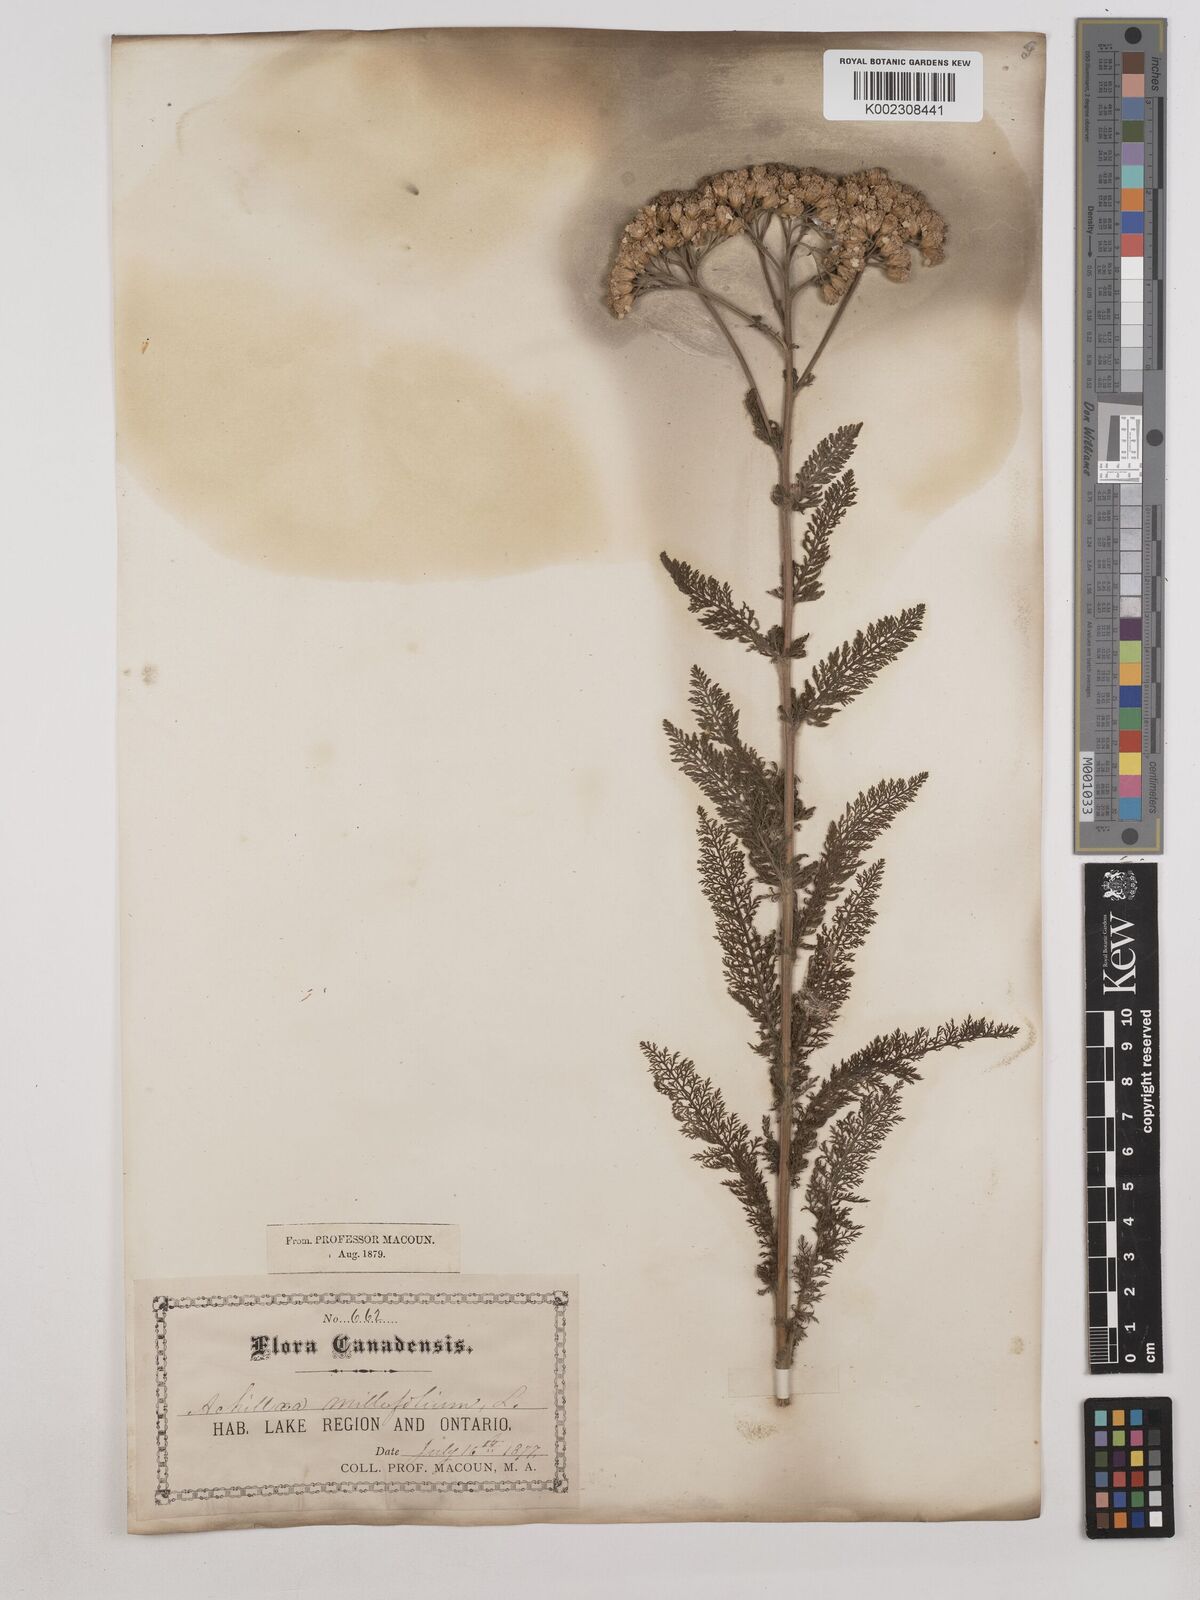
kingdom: Plantae
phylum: Tracheophyta
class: Magnoliopsida
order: Asterales
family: Asteraceae
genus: Achillea
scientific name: Achillea millefolium
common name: Yarrow
